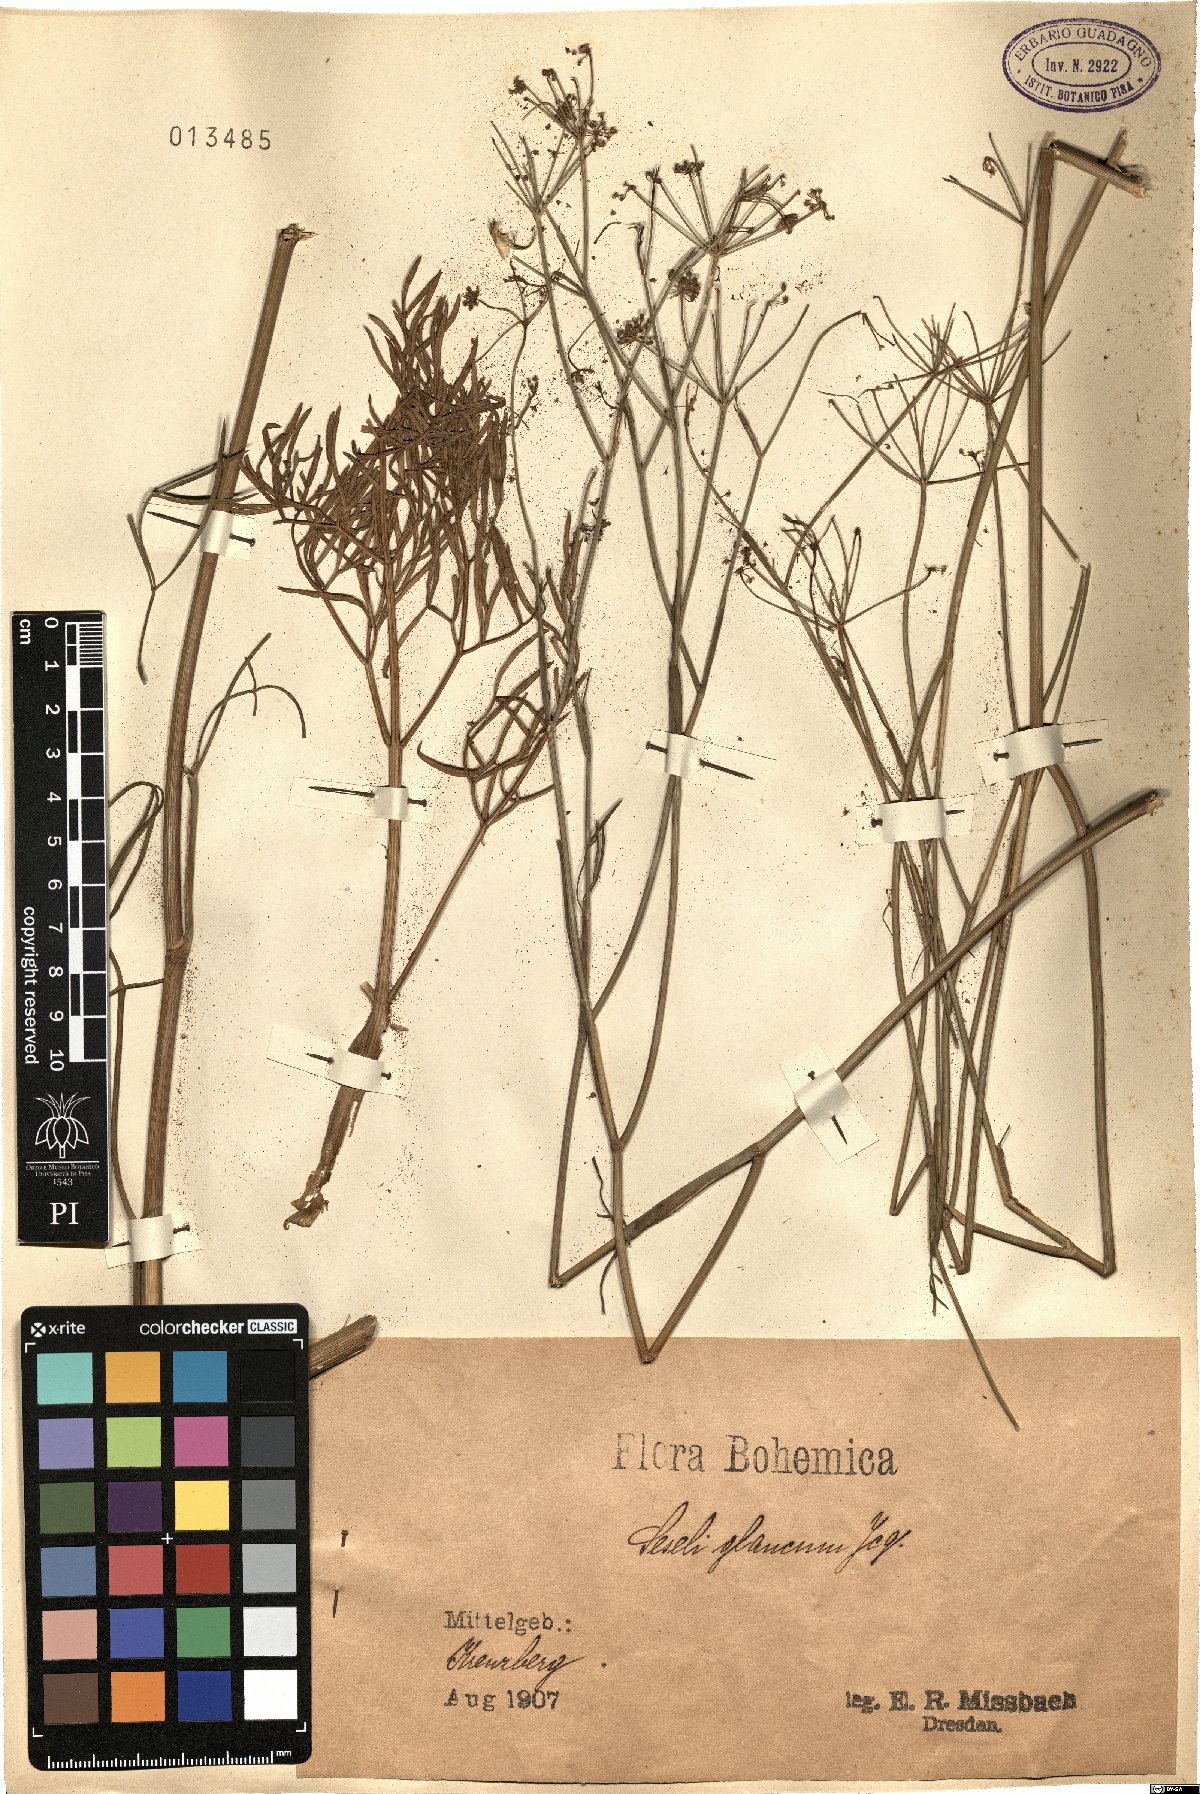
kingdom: Plantae
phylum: Tracheophyta
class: Magnoliopsida
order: Apiales
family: Apiaceae
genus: Seseli
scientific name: Seseli montanum
